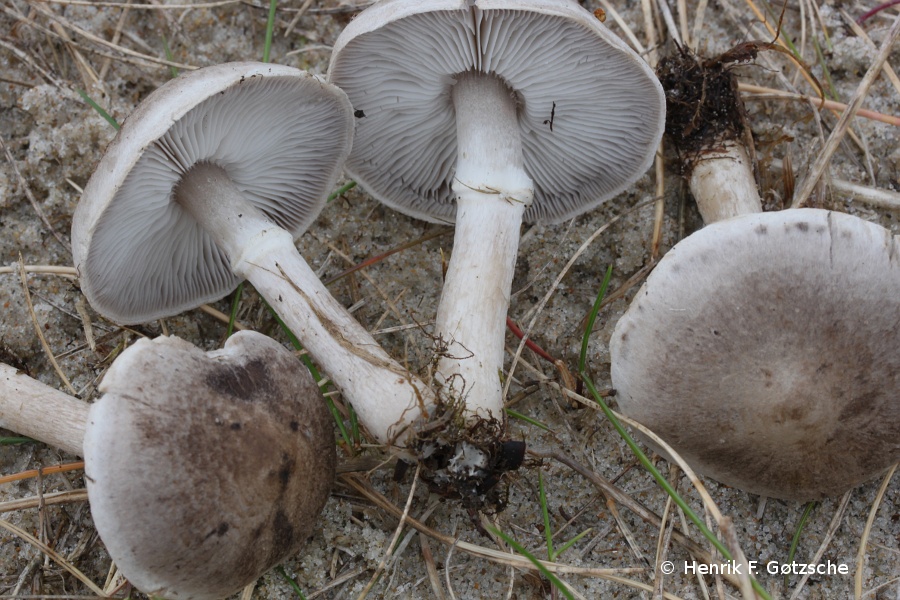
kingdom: Fungi
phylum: Basidiomycota
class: Agaricomycetes
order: Agaricales
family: Tricholomataceae
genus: Tricholoma
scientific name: Tricholoma cingulatum
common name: ring-ridderhat
